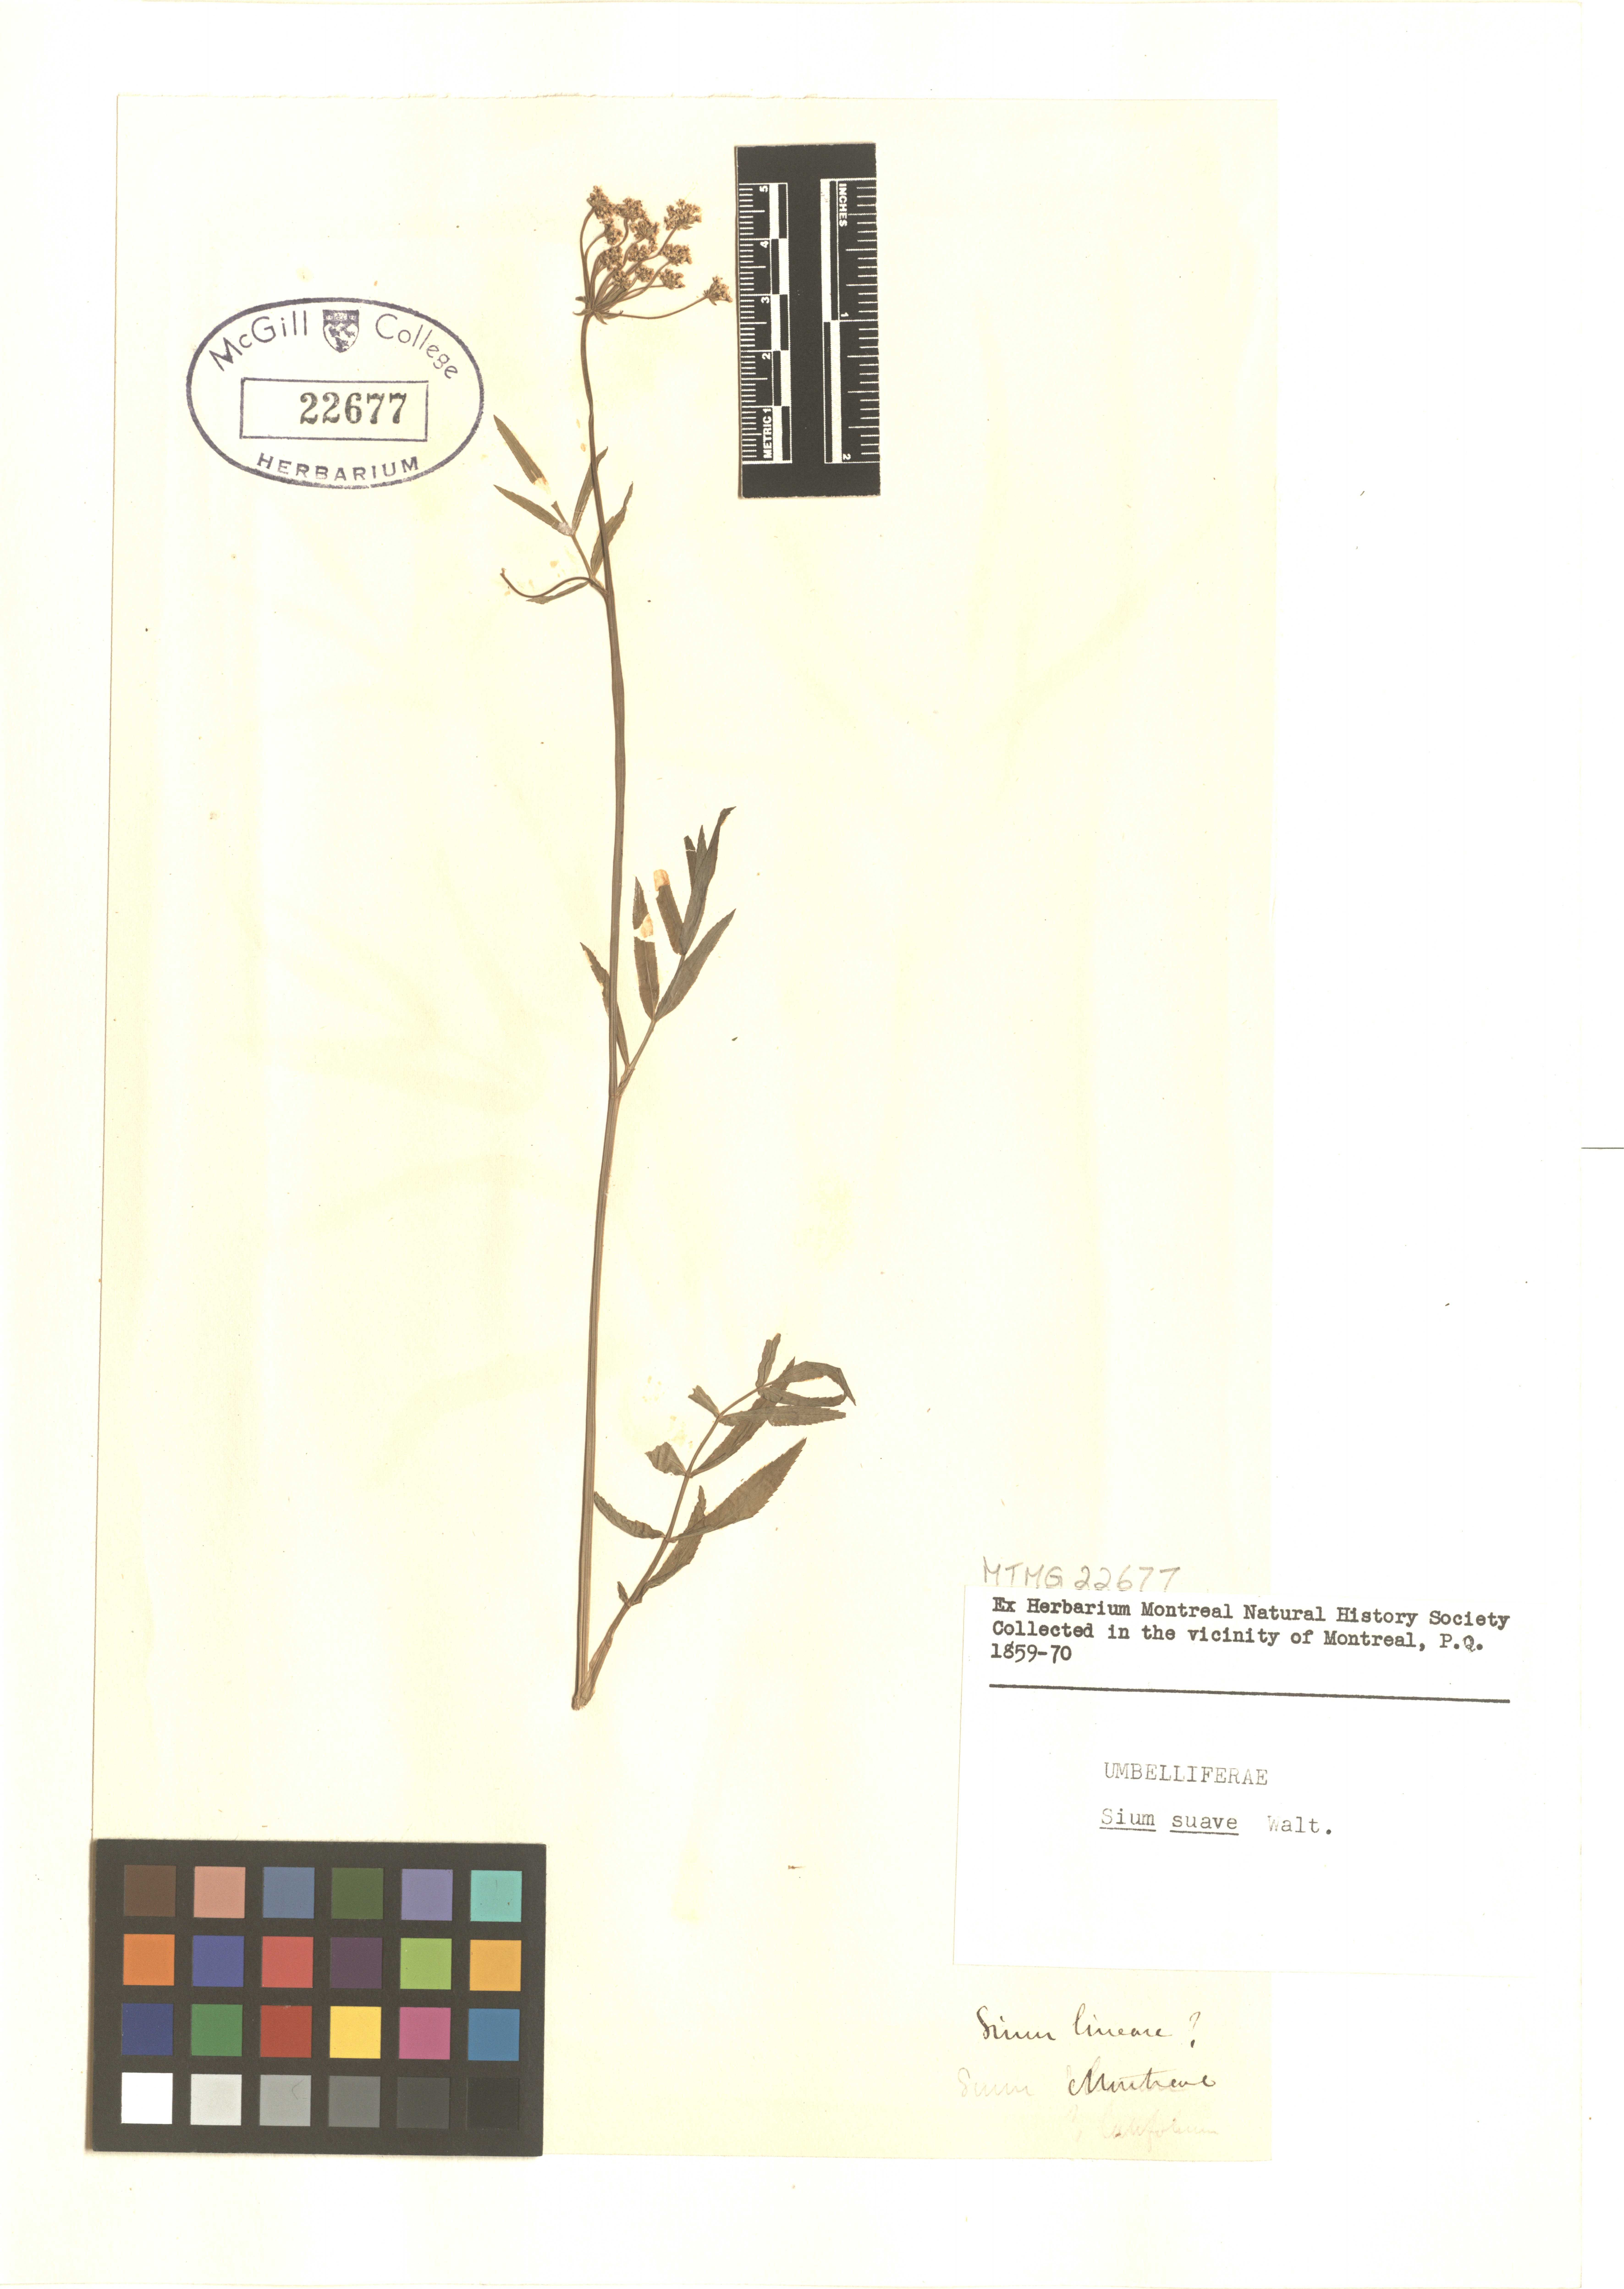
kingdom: Plantae
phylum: Tracheophyta
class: Magnoliopsida
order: Apiales
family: Apiaceae
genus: Sium
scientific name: Sium suave
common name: Hemlock water-parsnip
